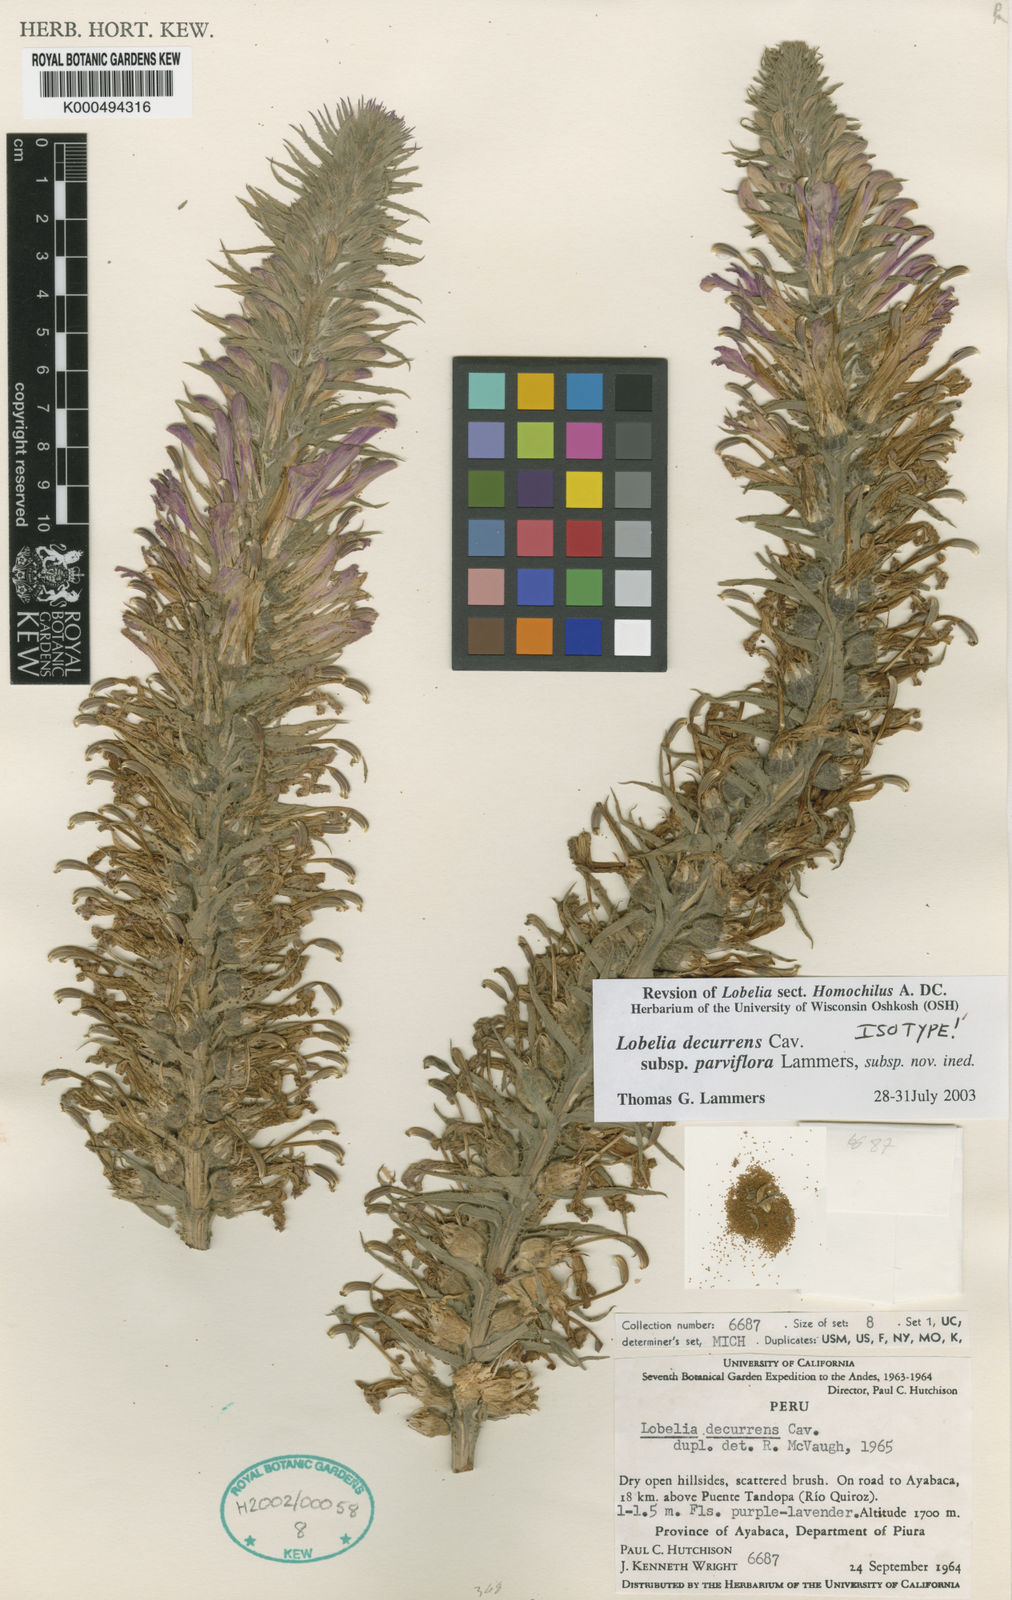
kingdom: Plantae
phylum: Tracheophyta
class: Magnoliopsida
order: Asterales
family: Campanulaceae
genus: Lobelia
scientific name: Lobelia decurrens
